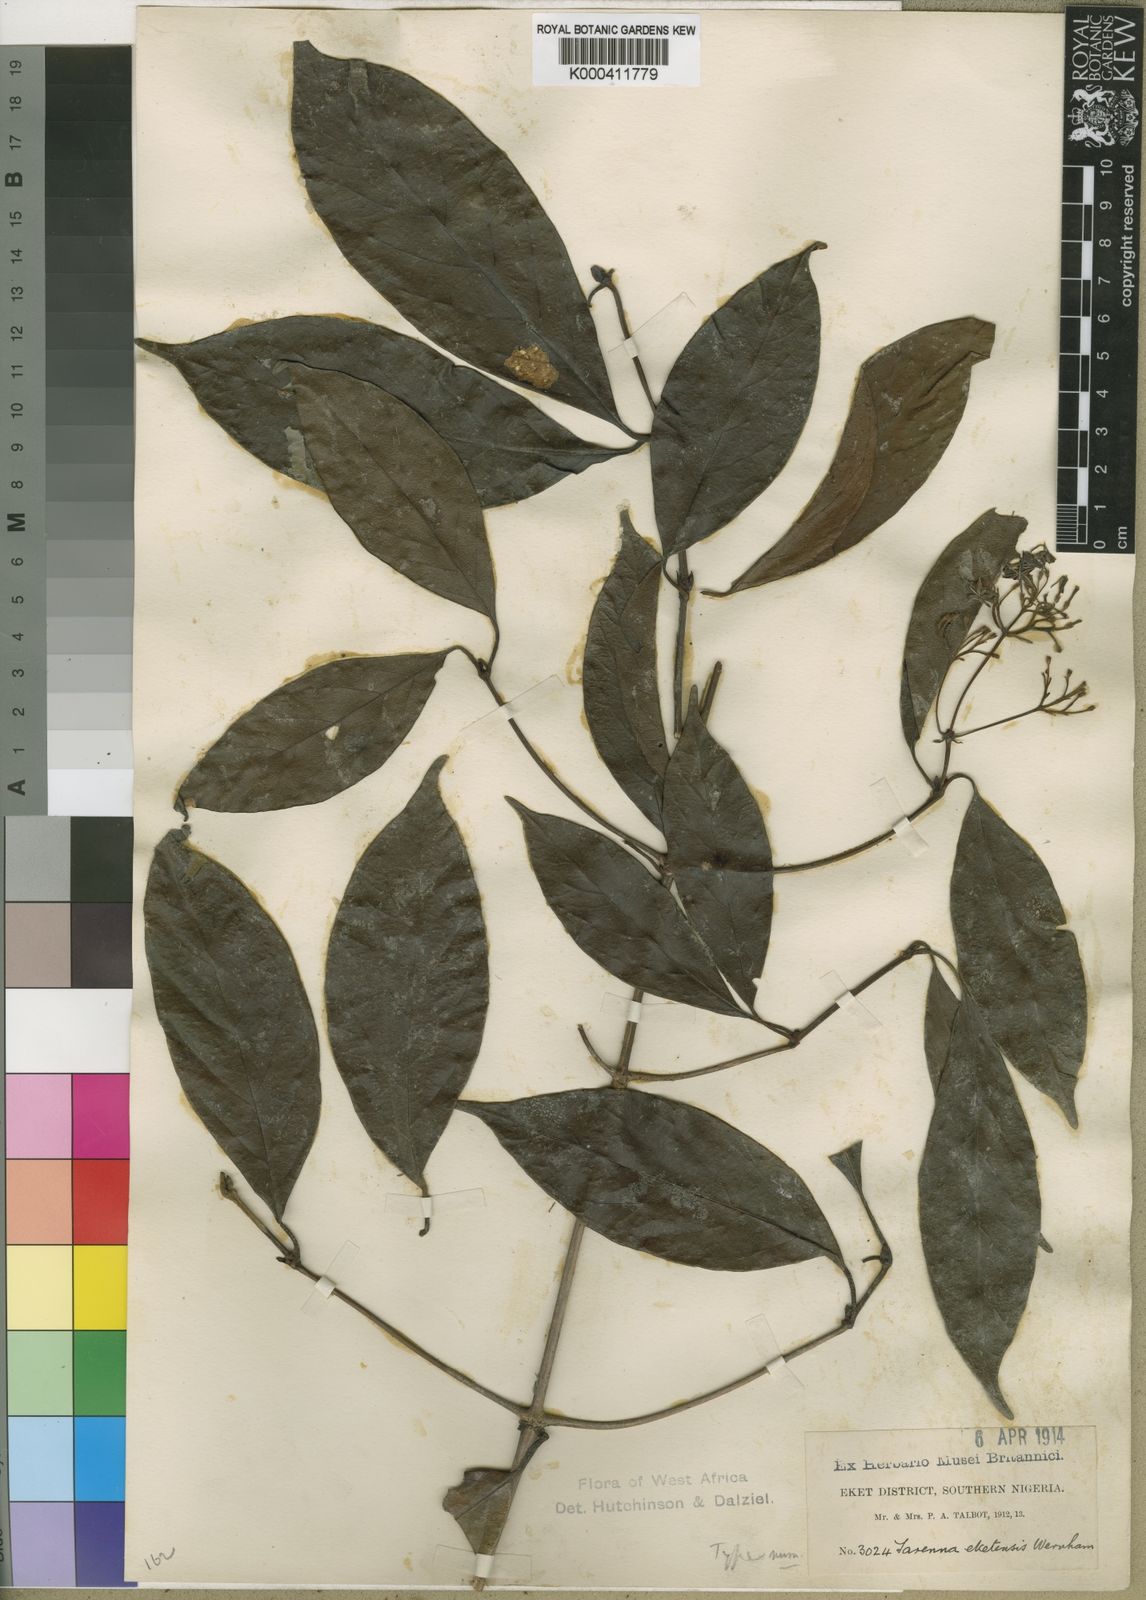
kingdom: Plantae
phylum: Tracheophyta
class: Magnoliopsida
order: Gentianales
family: Rubiaceae
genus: Tarenna
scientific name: Tarenna eketensis
